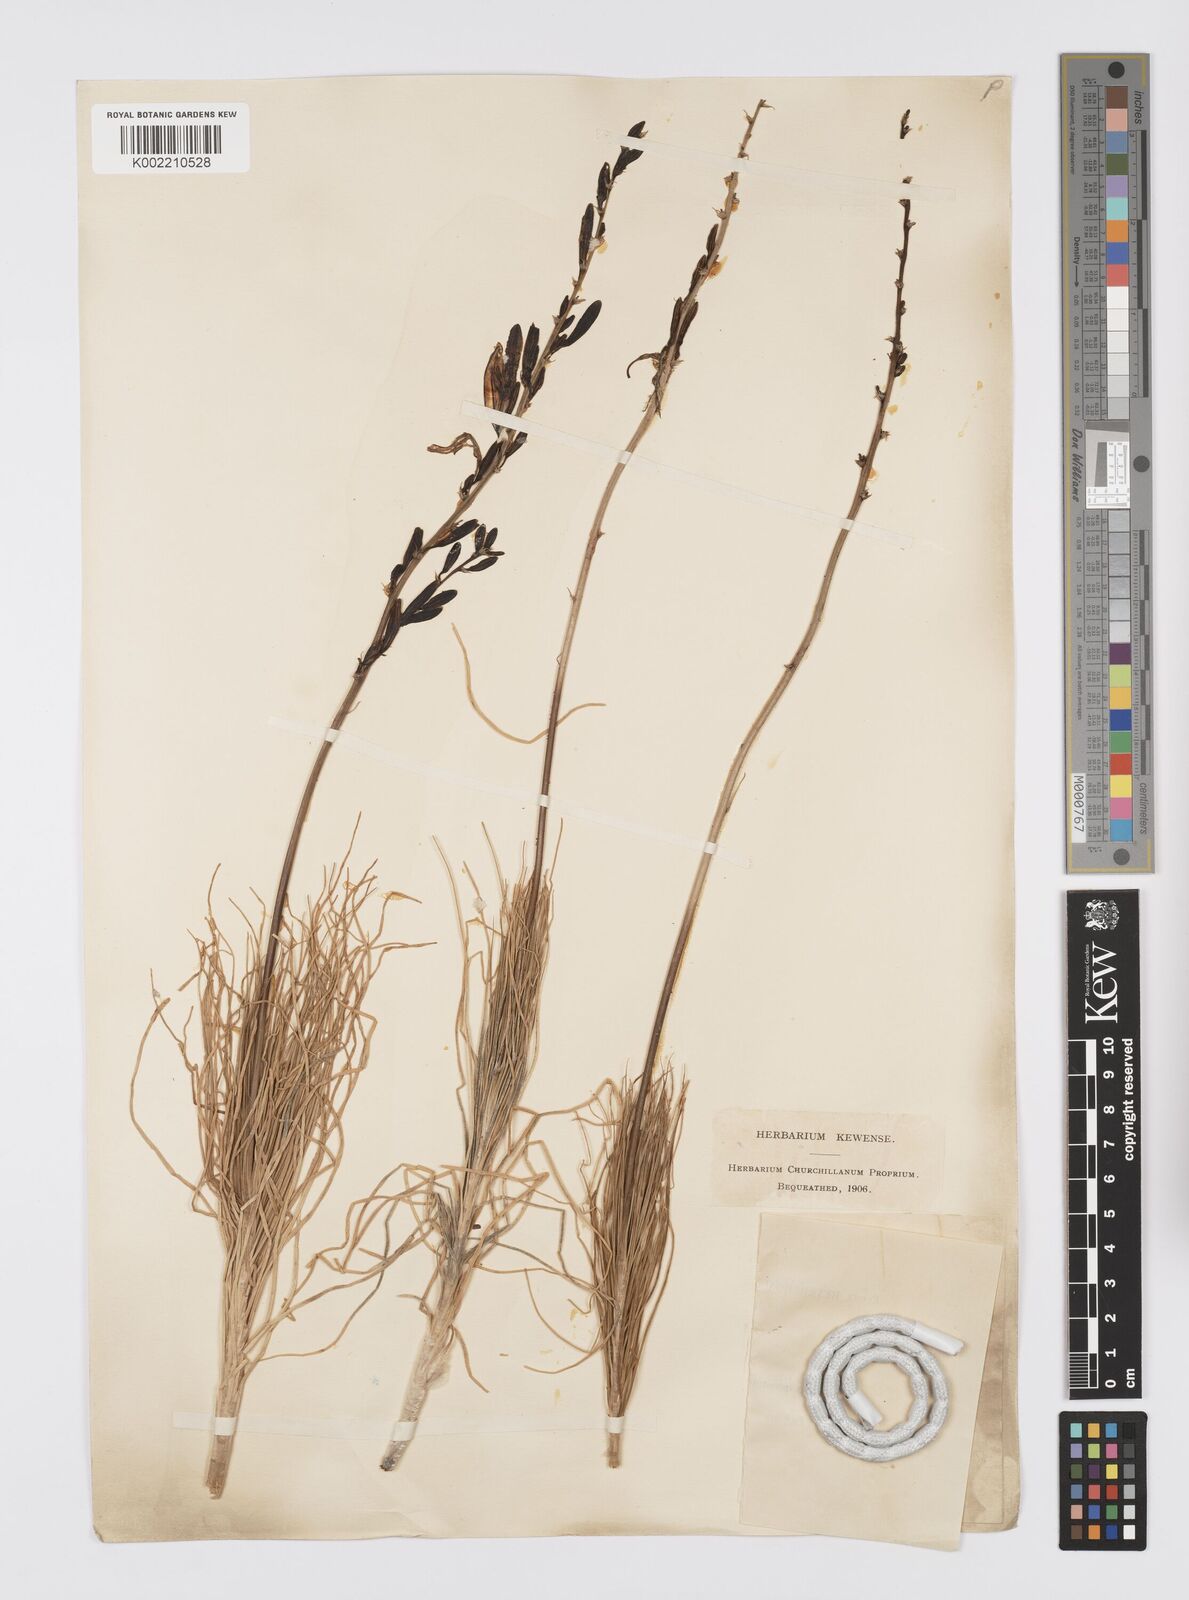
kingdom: Plantae
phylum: Tracheophyta
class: Liliopsida
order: Asparagales
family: Asphodelaceae
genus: Asphodeline
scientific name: Asphodeline liburnica
